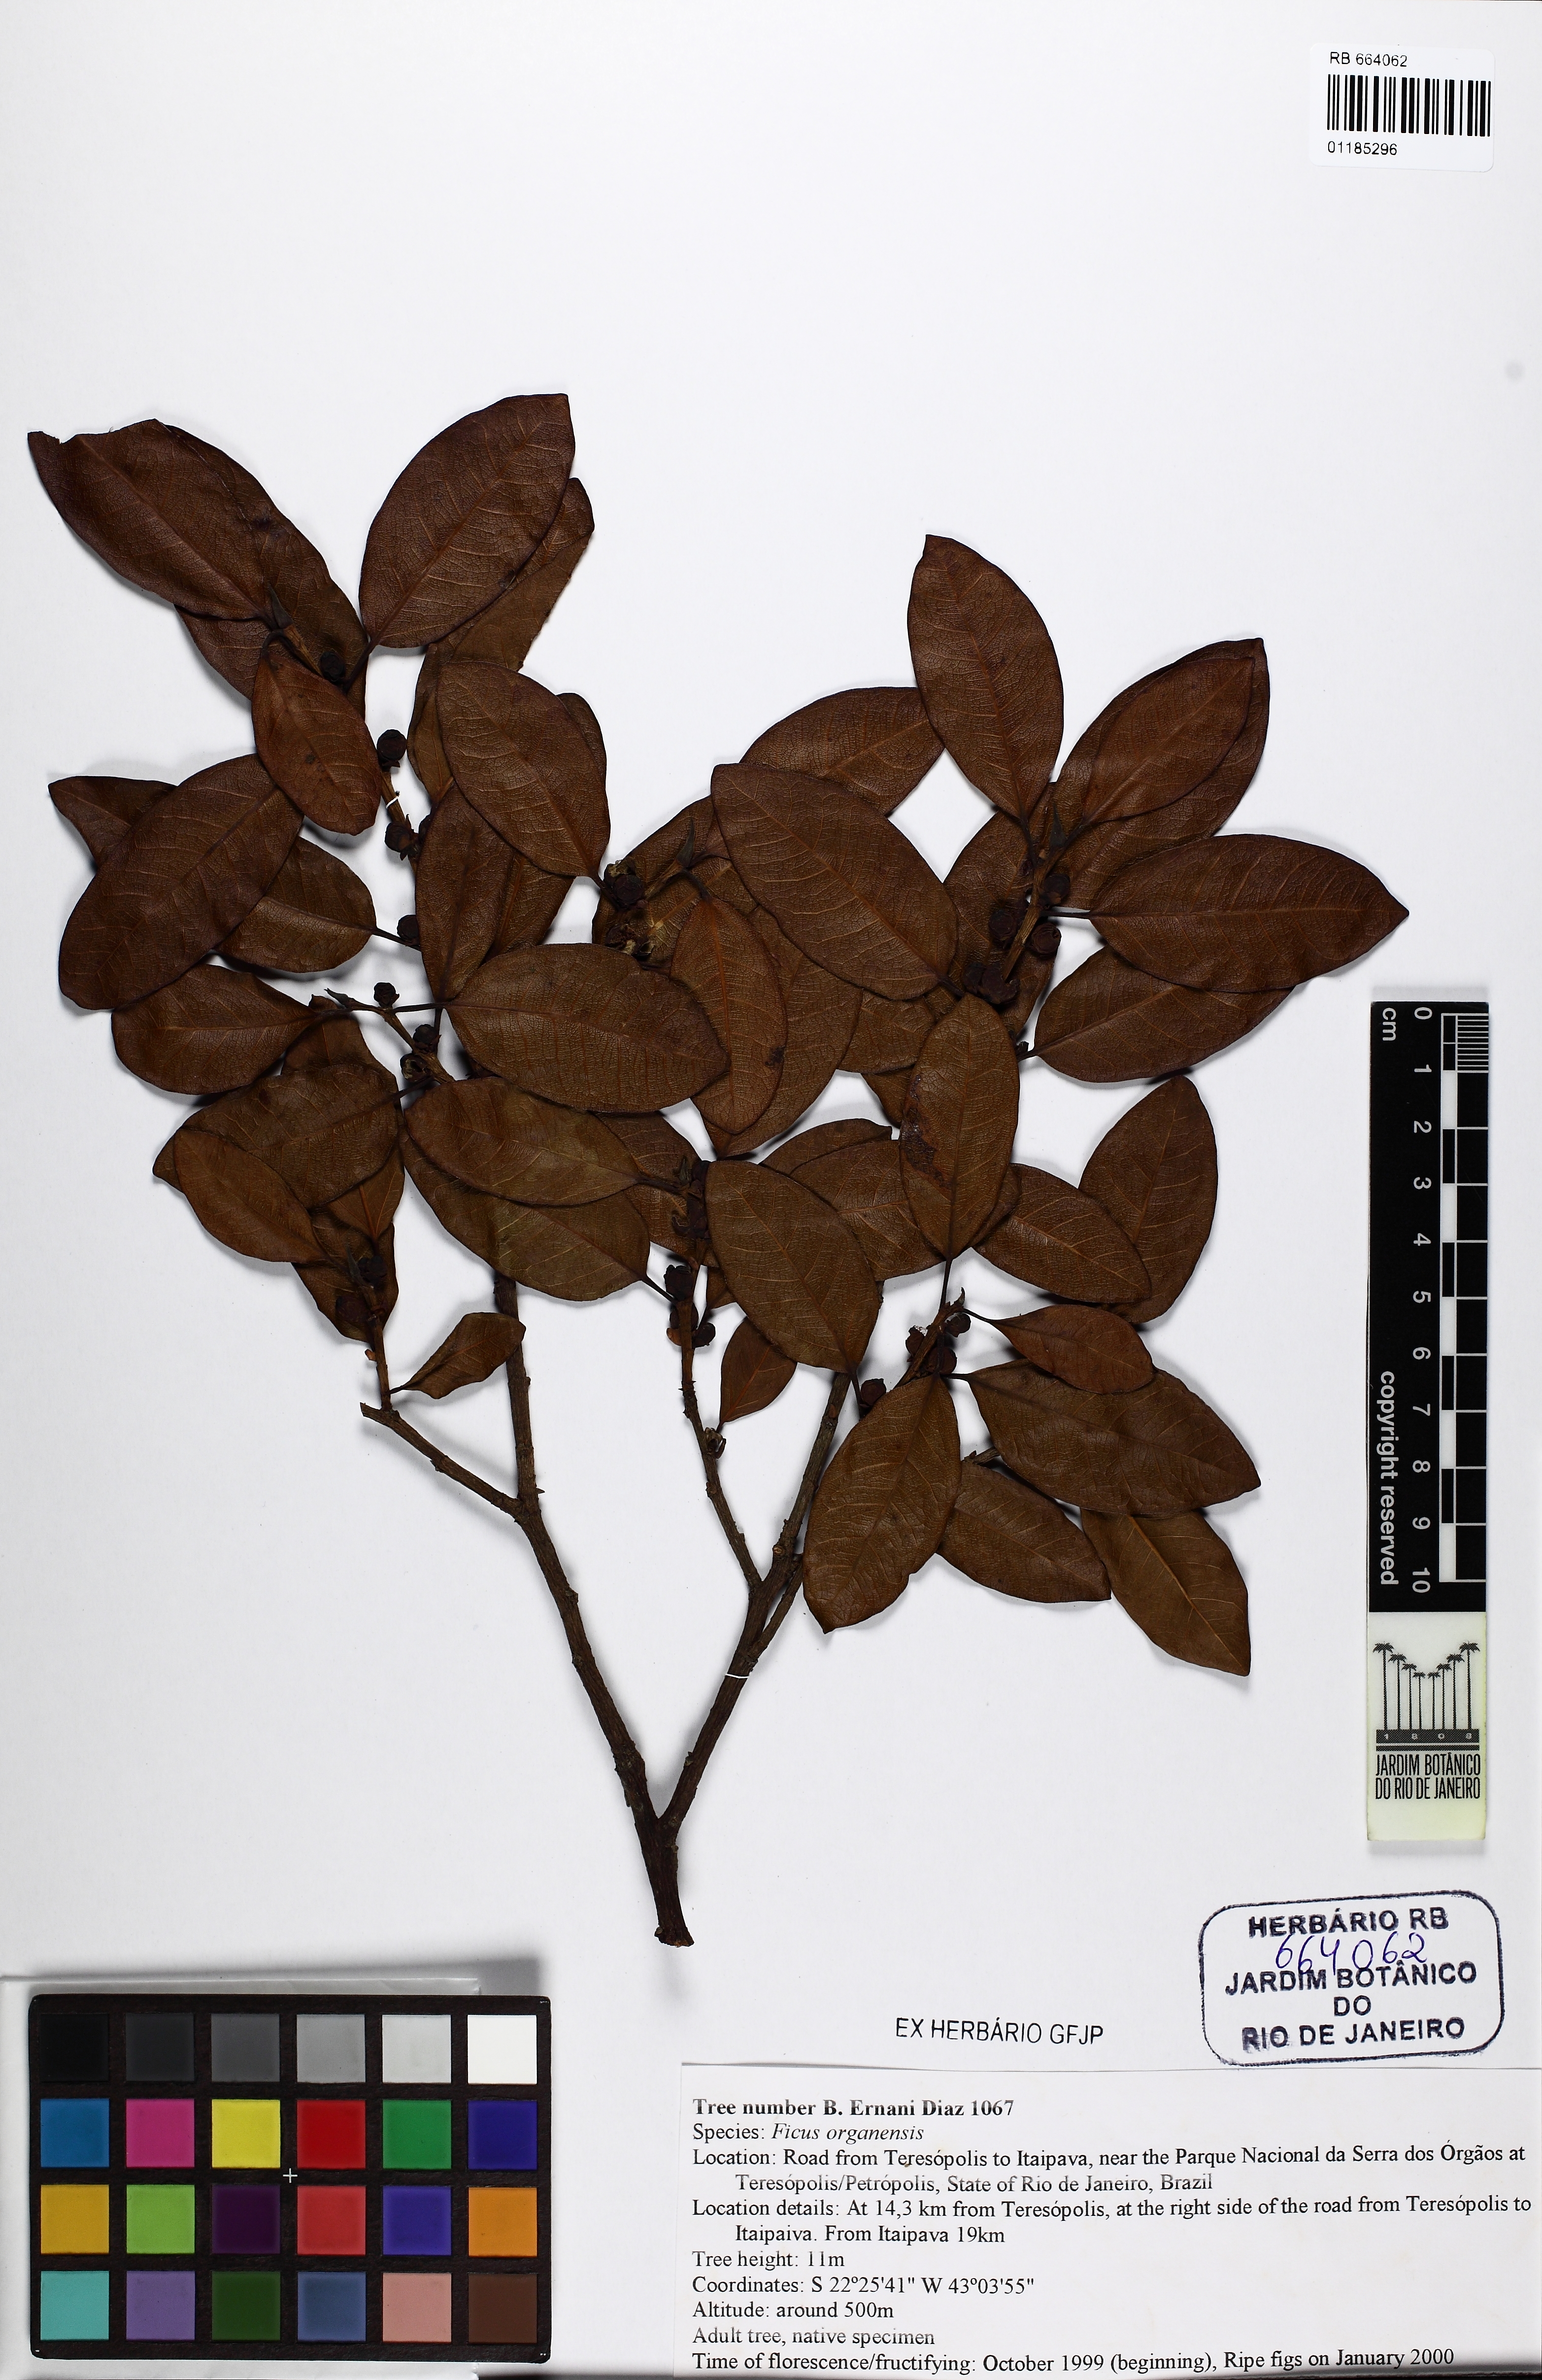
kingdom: Plantae
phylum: Tracheophyta
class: Magnoliopsida
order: Rosales
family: Moraceae
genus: Ficus
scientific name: Ficus organensis
